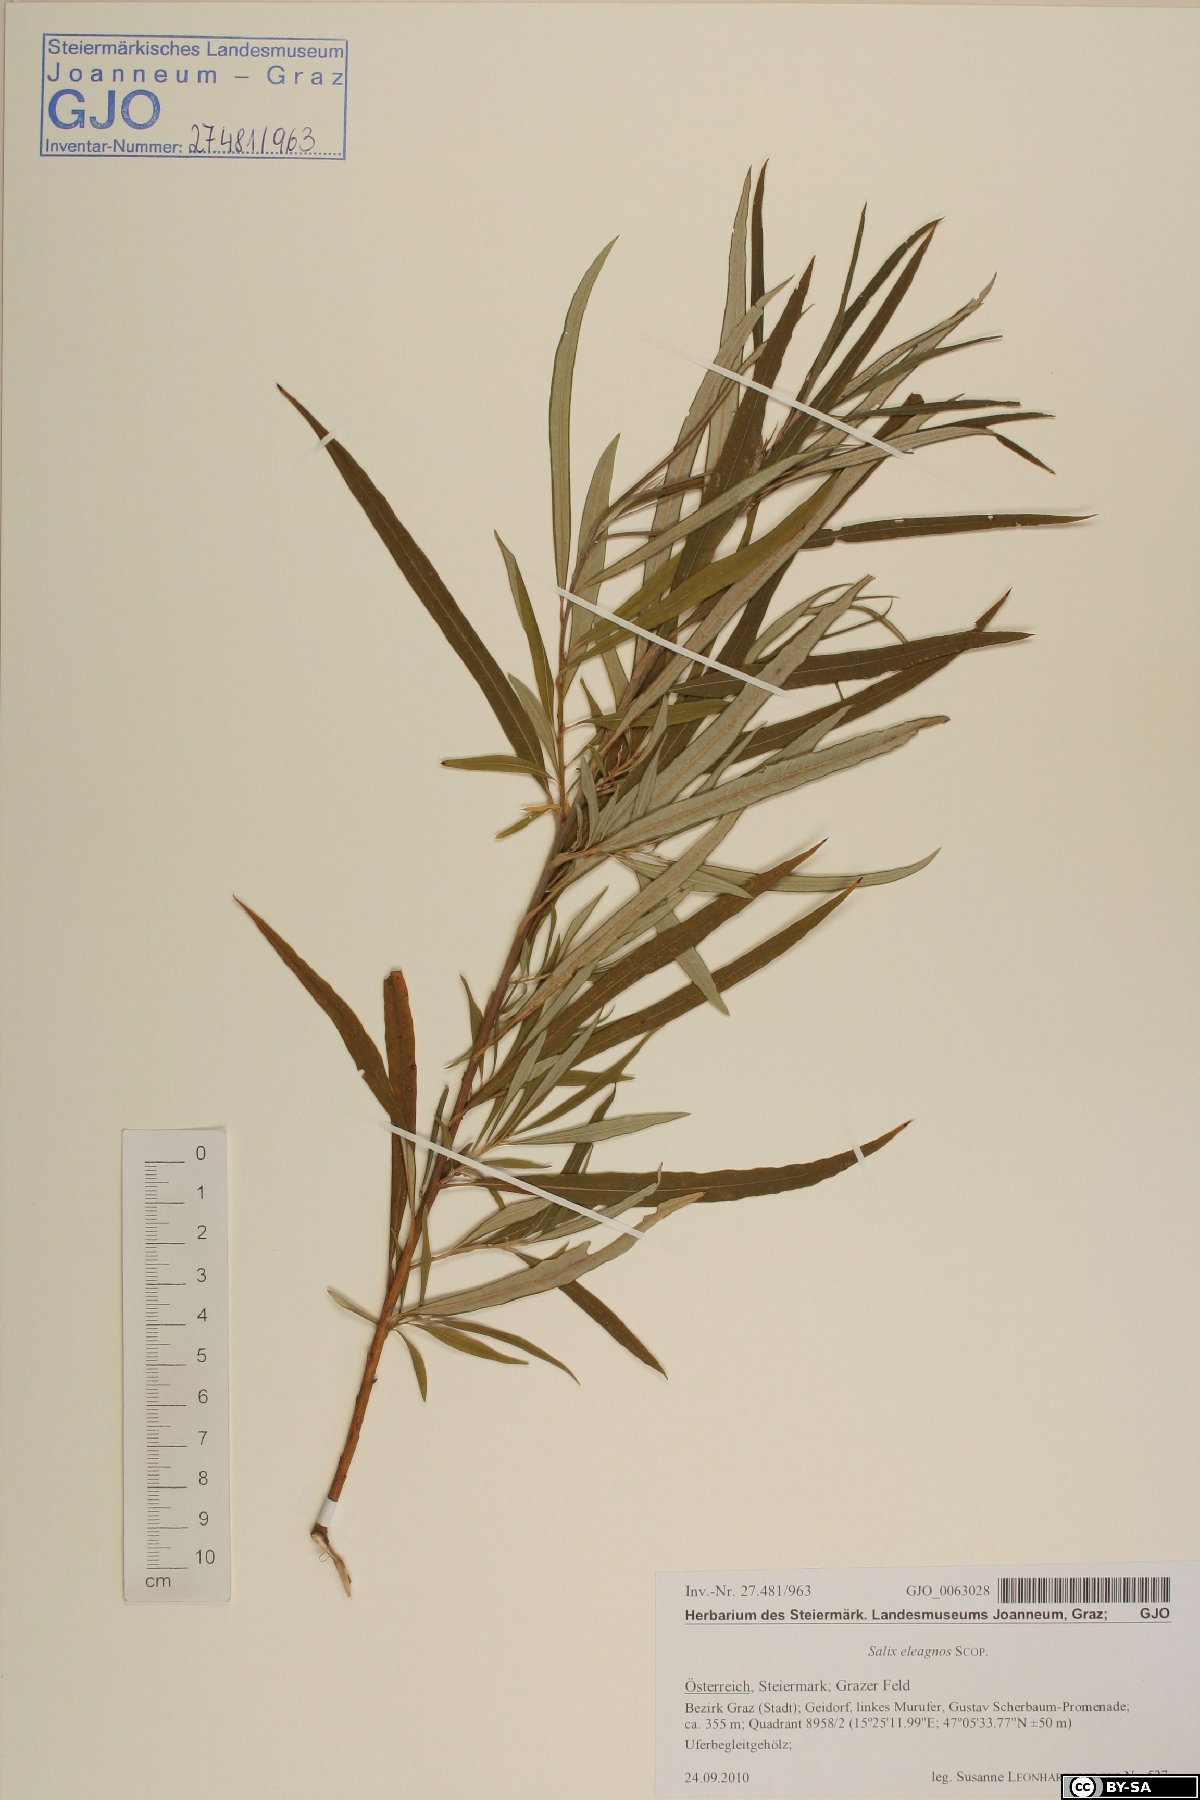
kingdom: Plantae
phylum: Tracheophyta
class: Magnoliopsida
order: Malpighiales
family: Salicaceae
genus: Salix
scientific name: Salix eleagnos
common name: Elaeagnus willow
